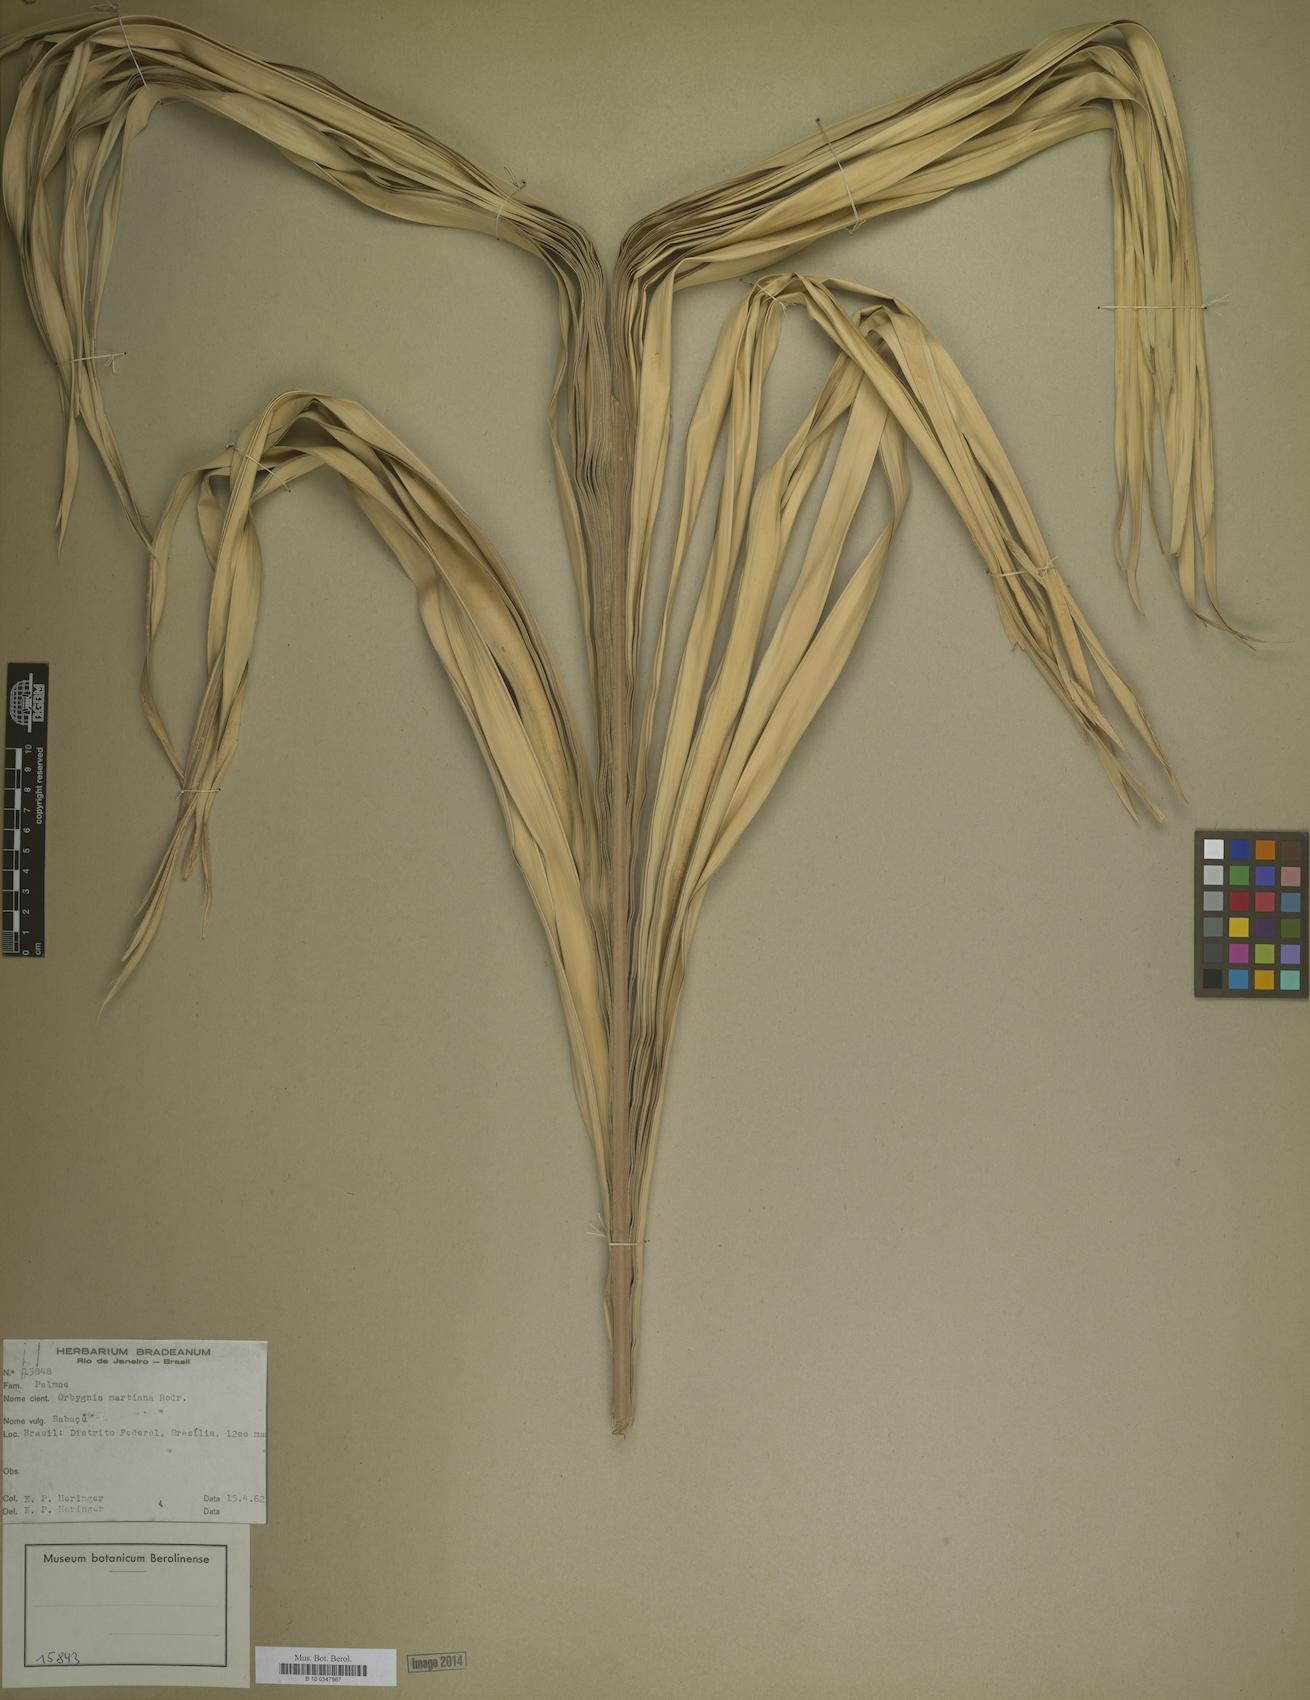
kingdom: Plantae
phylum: Tracheophyta
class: Liliopsida
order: Arecales
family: Arecaceae
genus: Attalea
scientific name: Attalea speciosa
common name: Babassu palm
